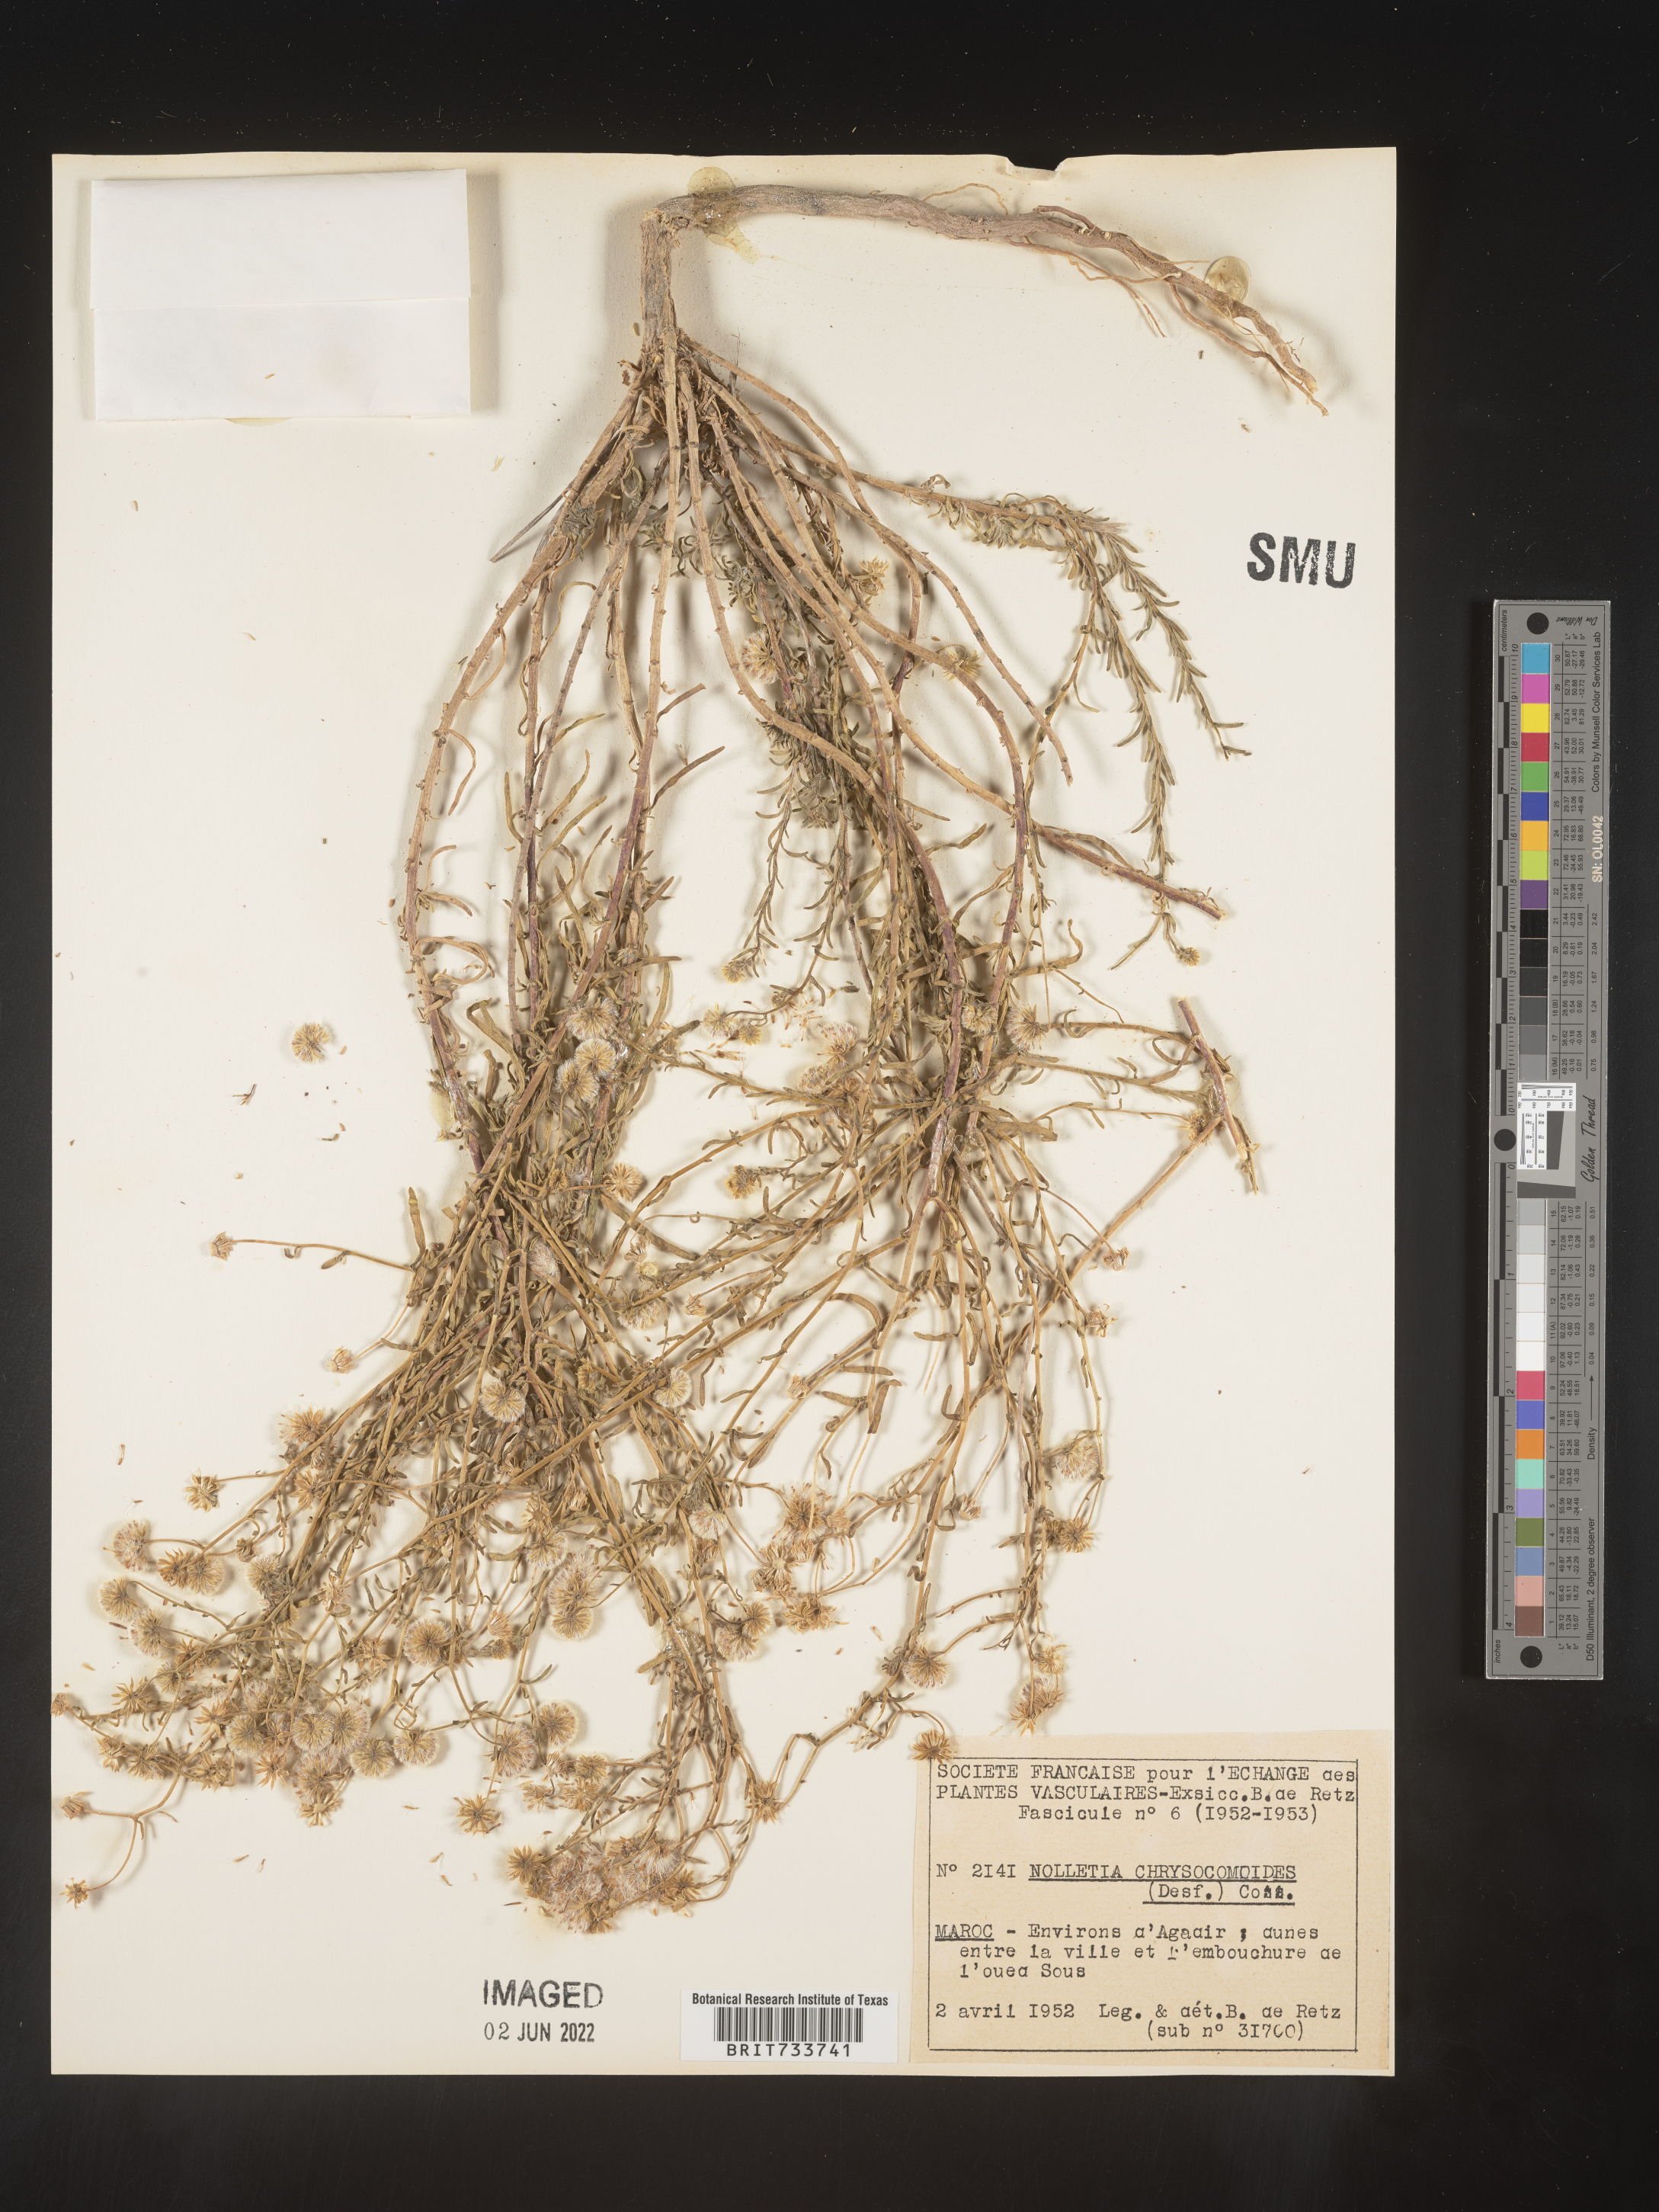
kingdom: Plantae
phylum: Tracheophyta
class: Magnoliopsida
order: Asterales
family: Asteraceae
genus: Nolletia
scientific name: Nolletia chrysocomoides
